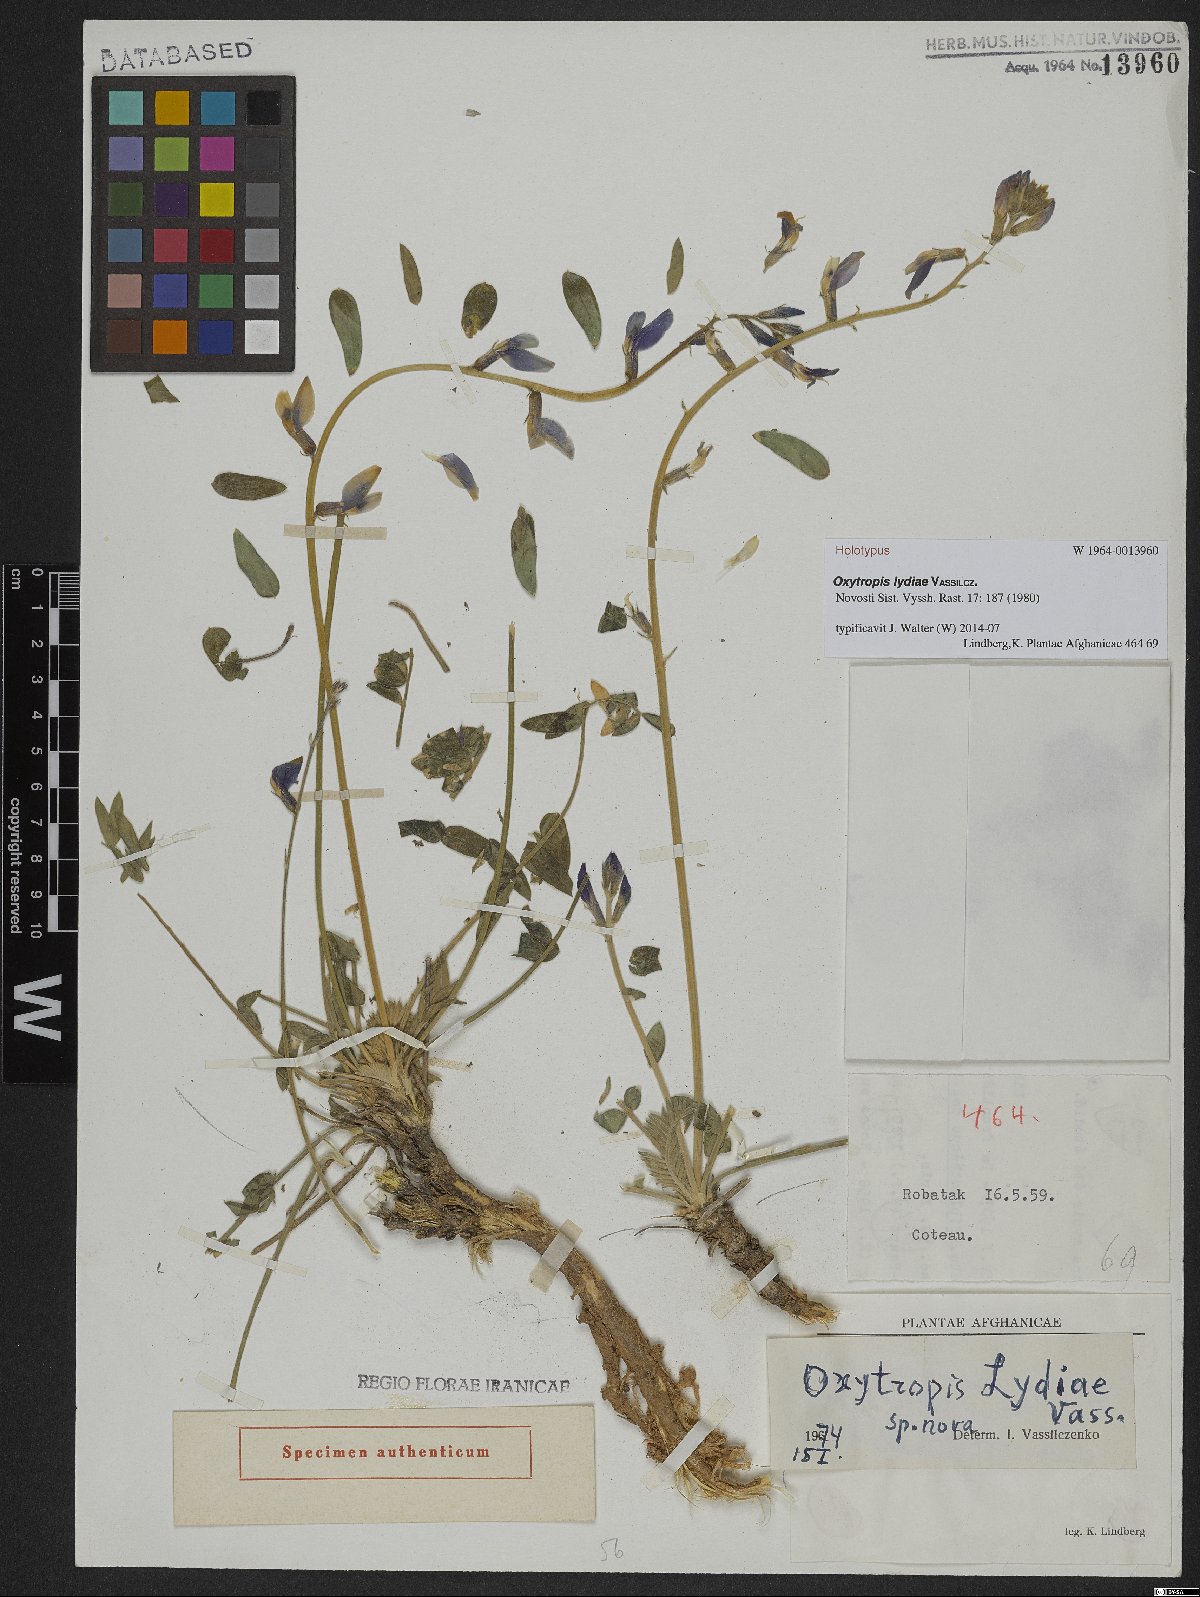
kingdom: Plantae
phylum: Tracheophyta
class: Magnoliopsida
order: Fabales
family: Fabaceae
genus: Oxytropis
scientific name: Oxytropis lydiae
